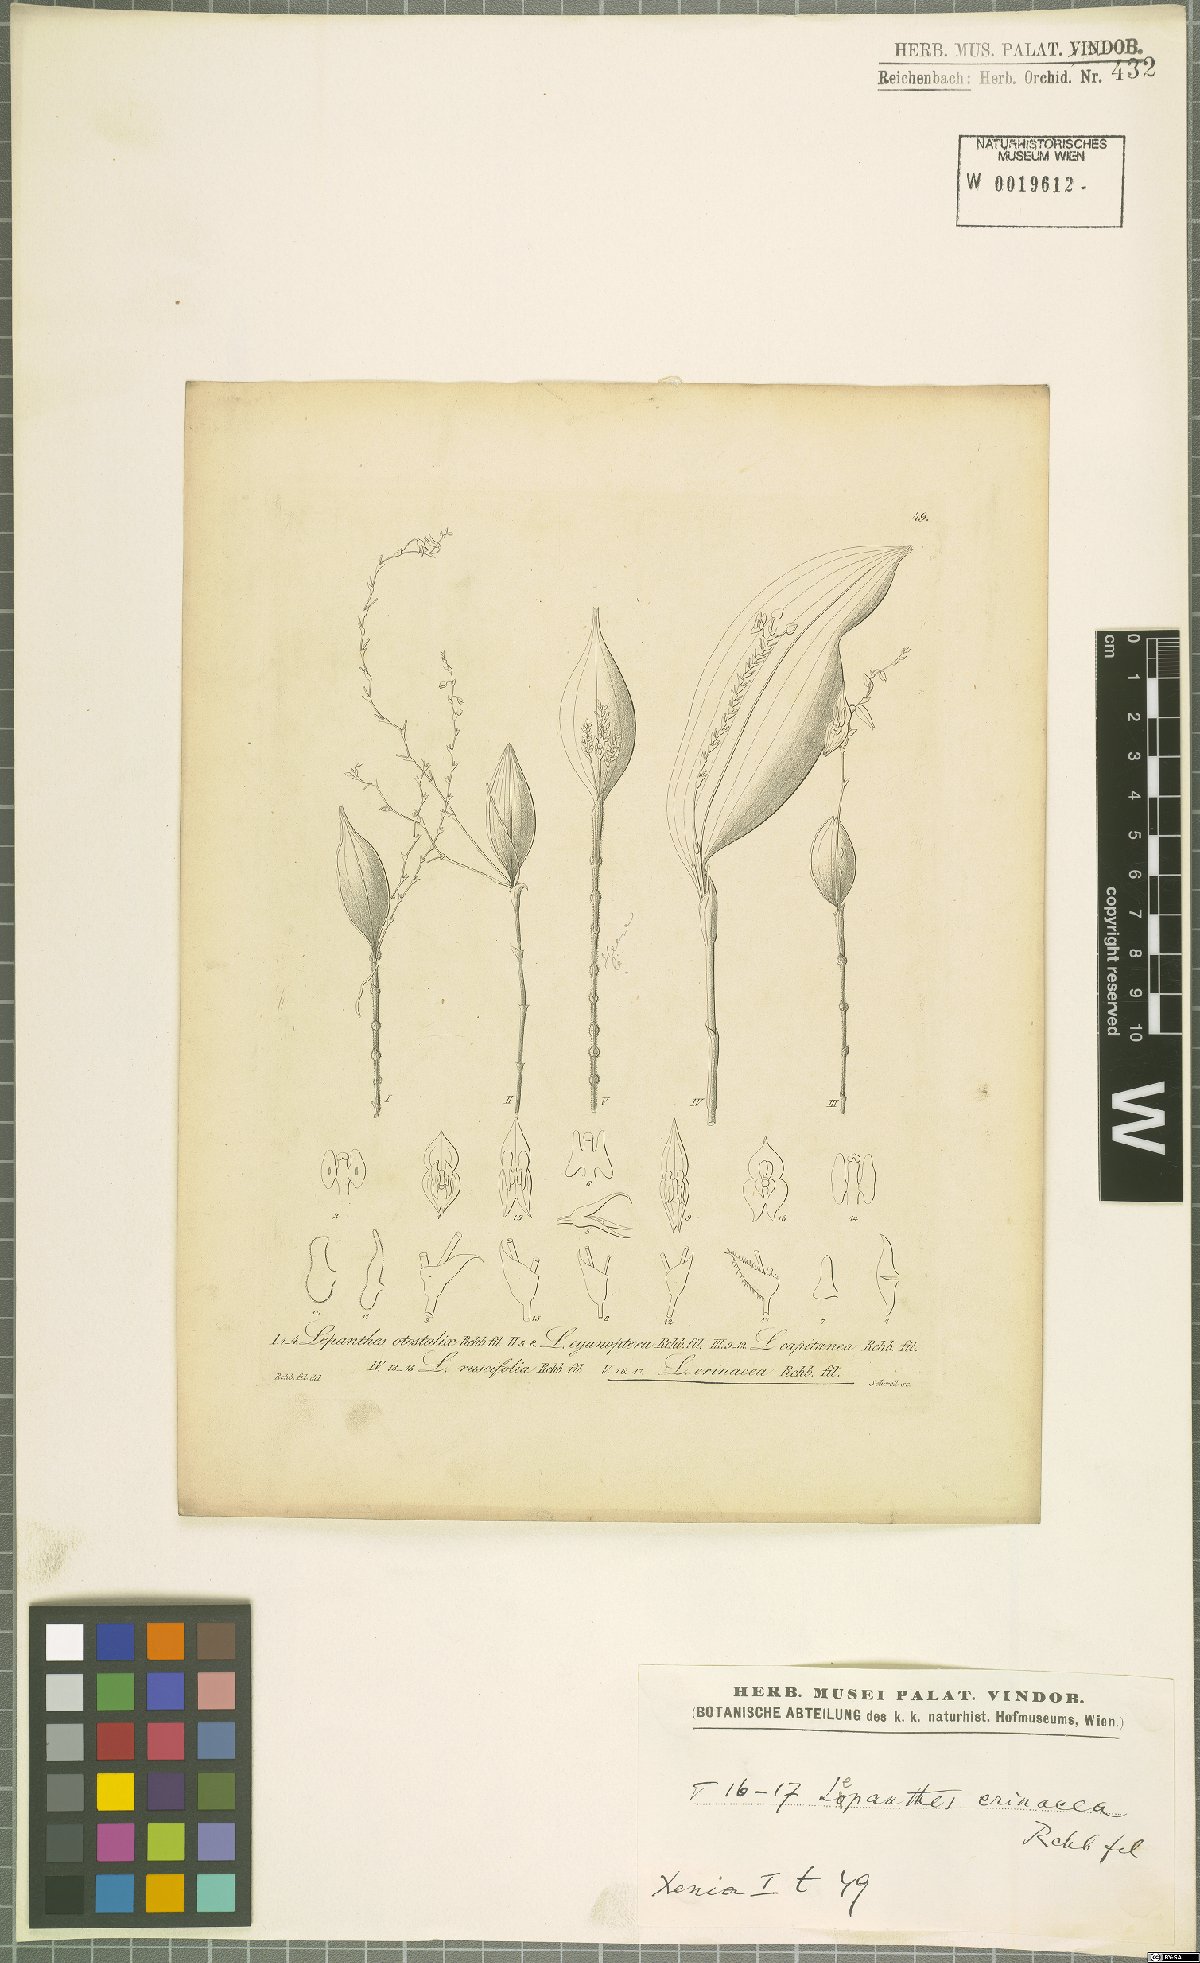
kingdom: Plantae
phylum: Tracheophyta
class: Liliopsida
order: Asparagales
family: Orchidaceae
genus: Lepanthes
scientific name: Lepanthes erinacea
